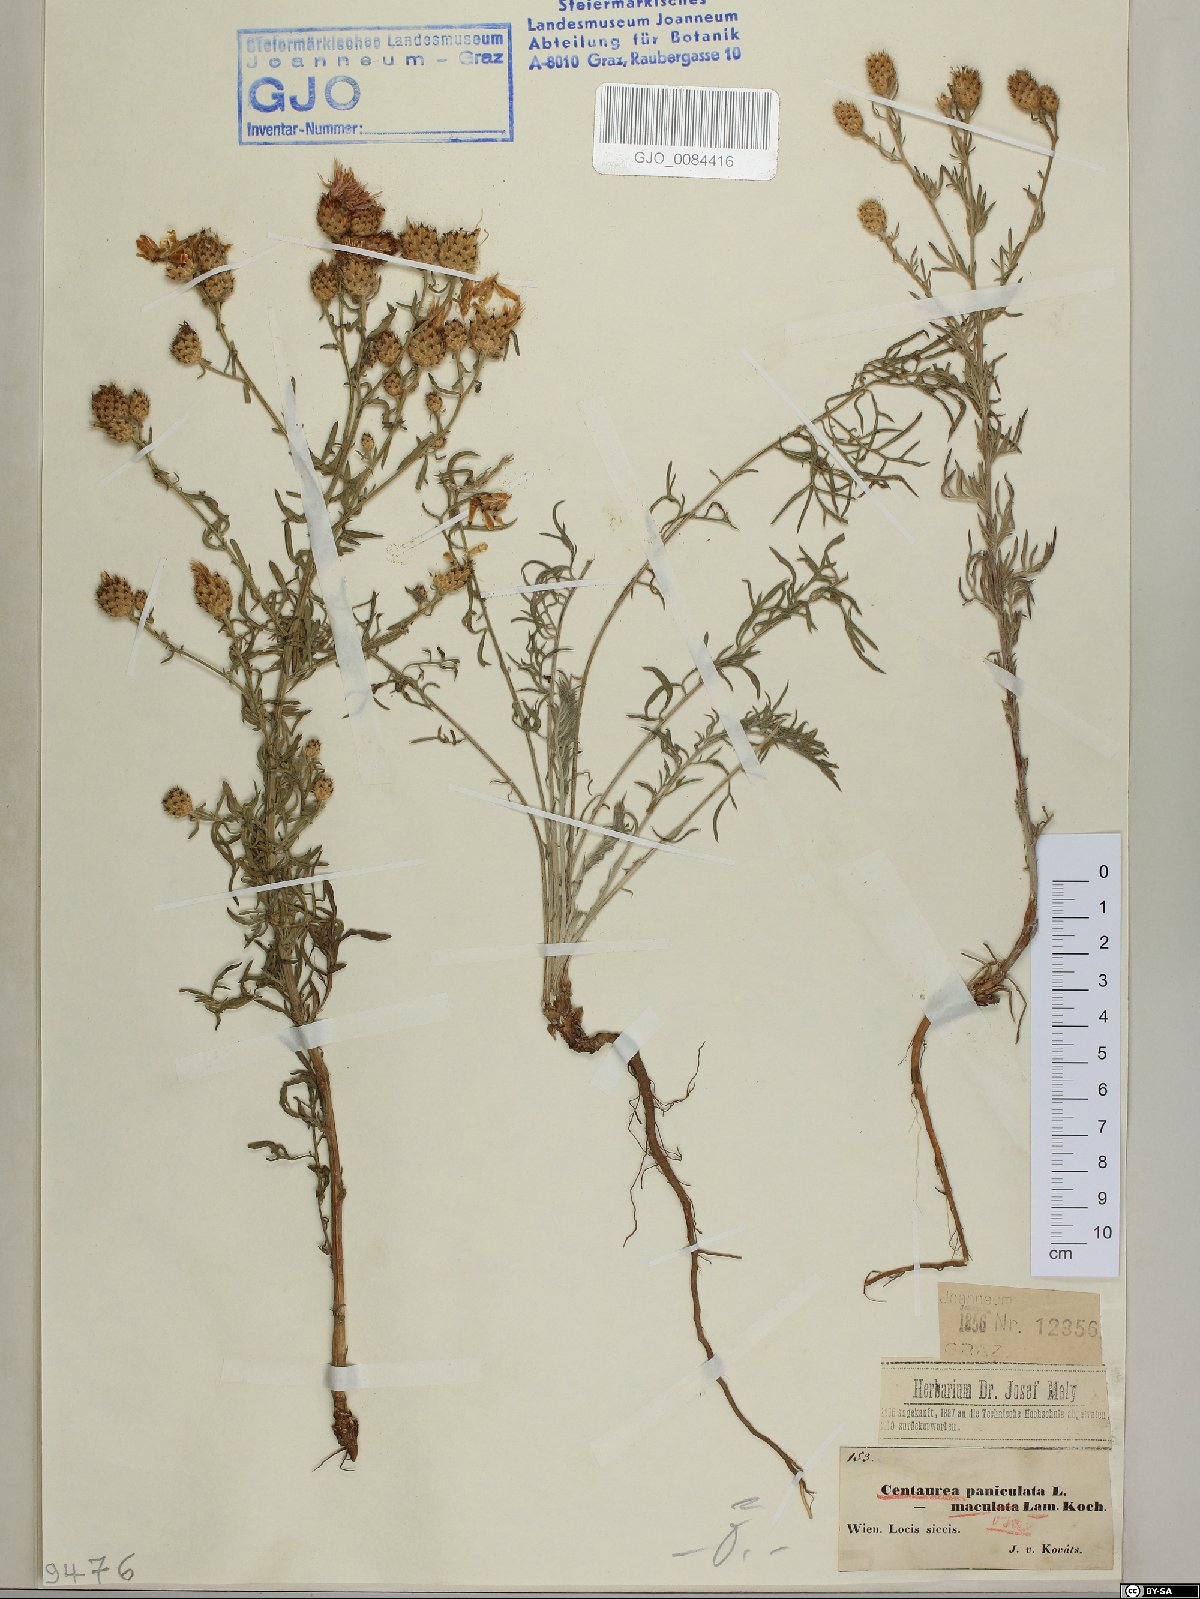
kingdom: Plantae
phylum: Tracheophyta
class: Magnoliopsida
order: Asterales
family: Asteraceae
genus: Centaurea
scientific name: Centaurea stoebe
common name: Spotted knapweed
